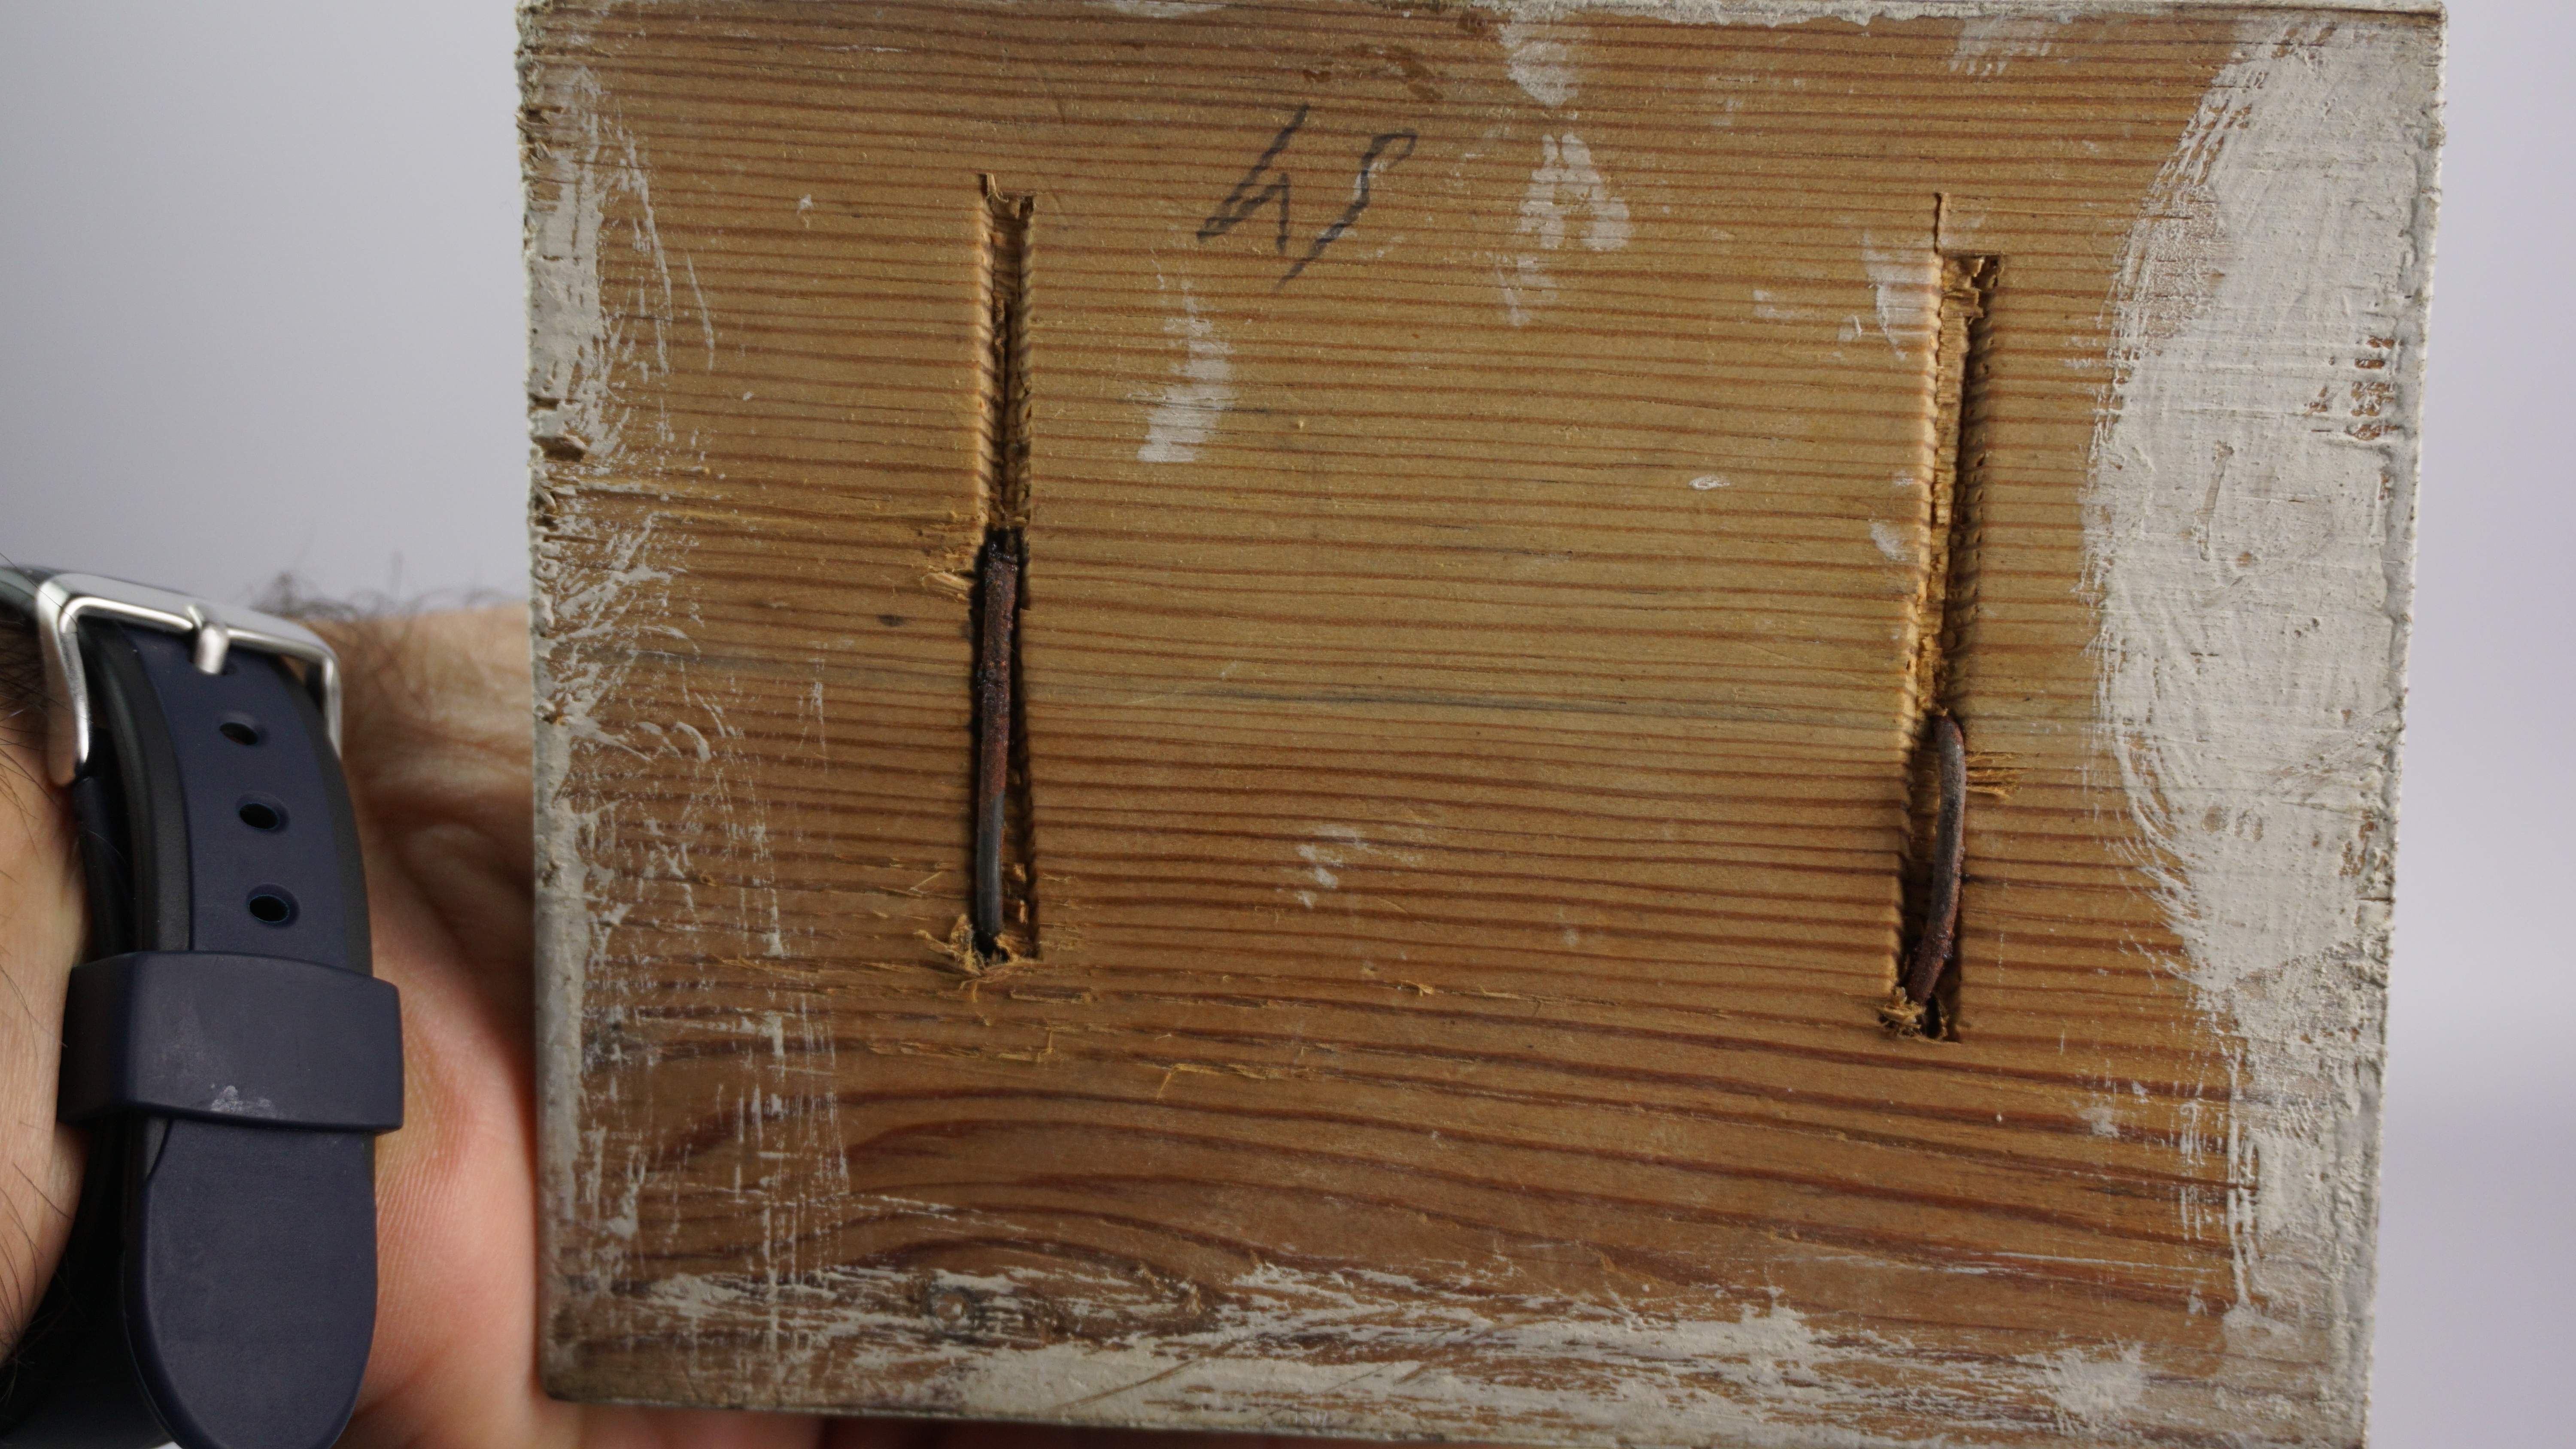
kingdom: Animalia
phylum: Chordata
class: Aves
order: Charadriiformes
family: Laridae
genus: Pagophila
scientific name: Pagophila eburnea
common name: Ivory gull
